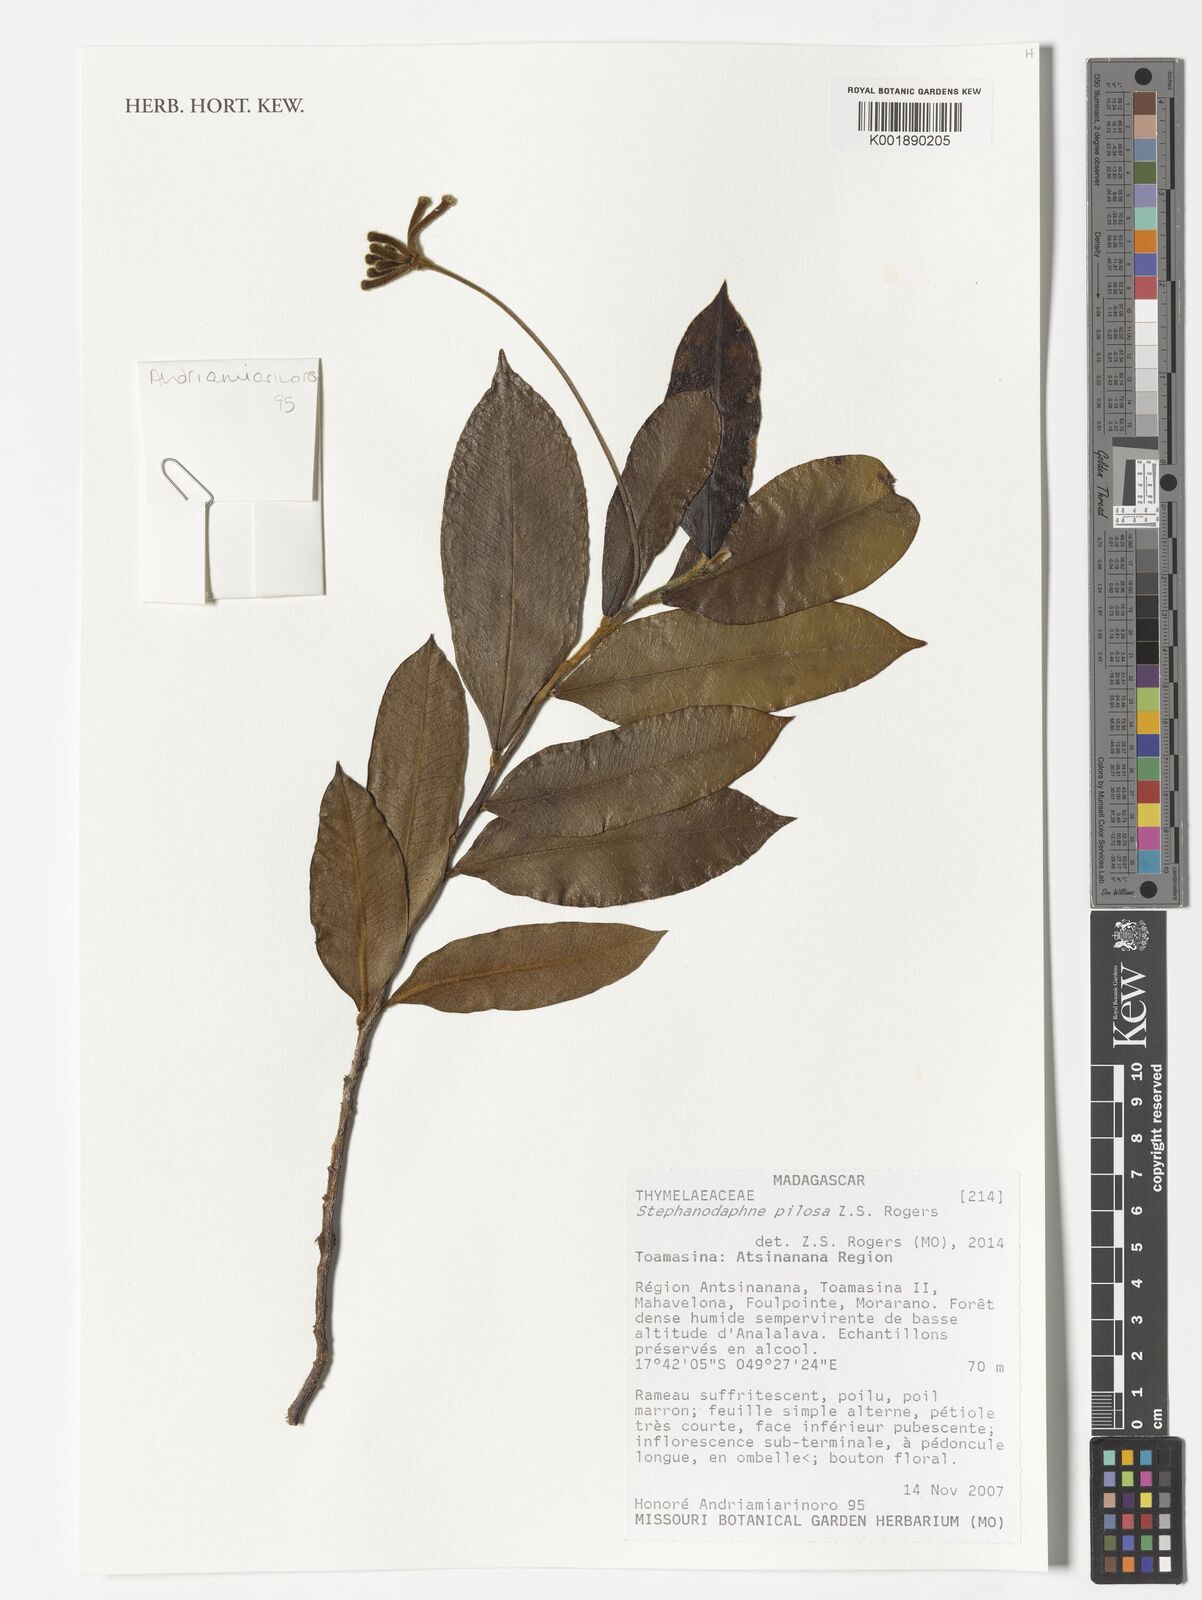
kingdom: Plantae
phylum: Tracheophyta
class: Magnoliopsida
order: Malvales
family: Thymelaeaceae
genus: Stephanodaphne
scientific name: Stephanodaphne pilosa
